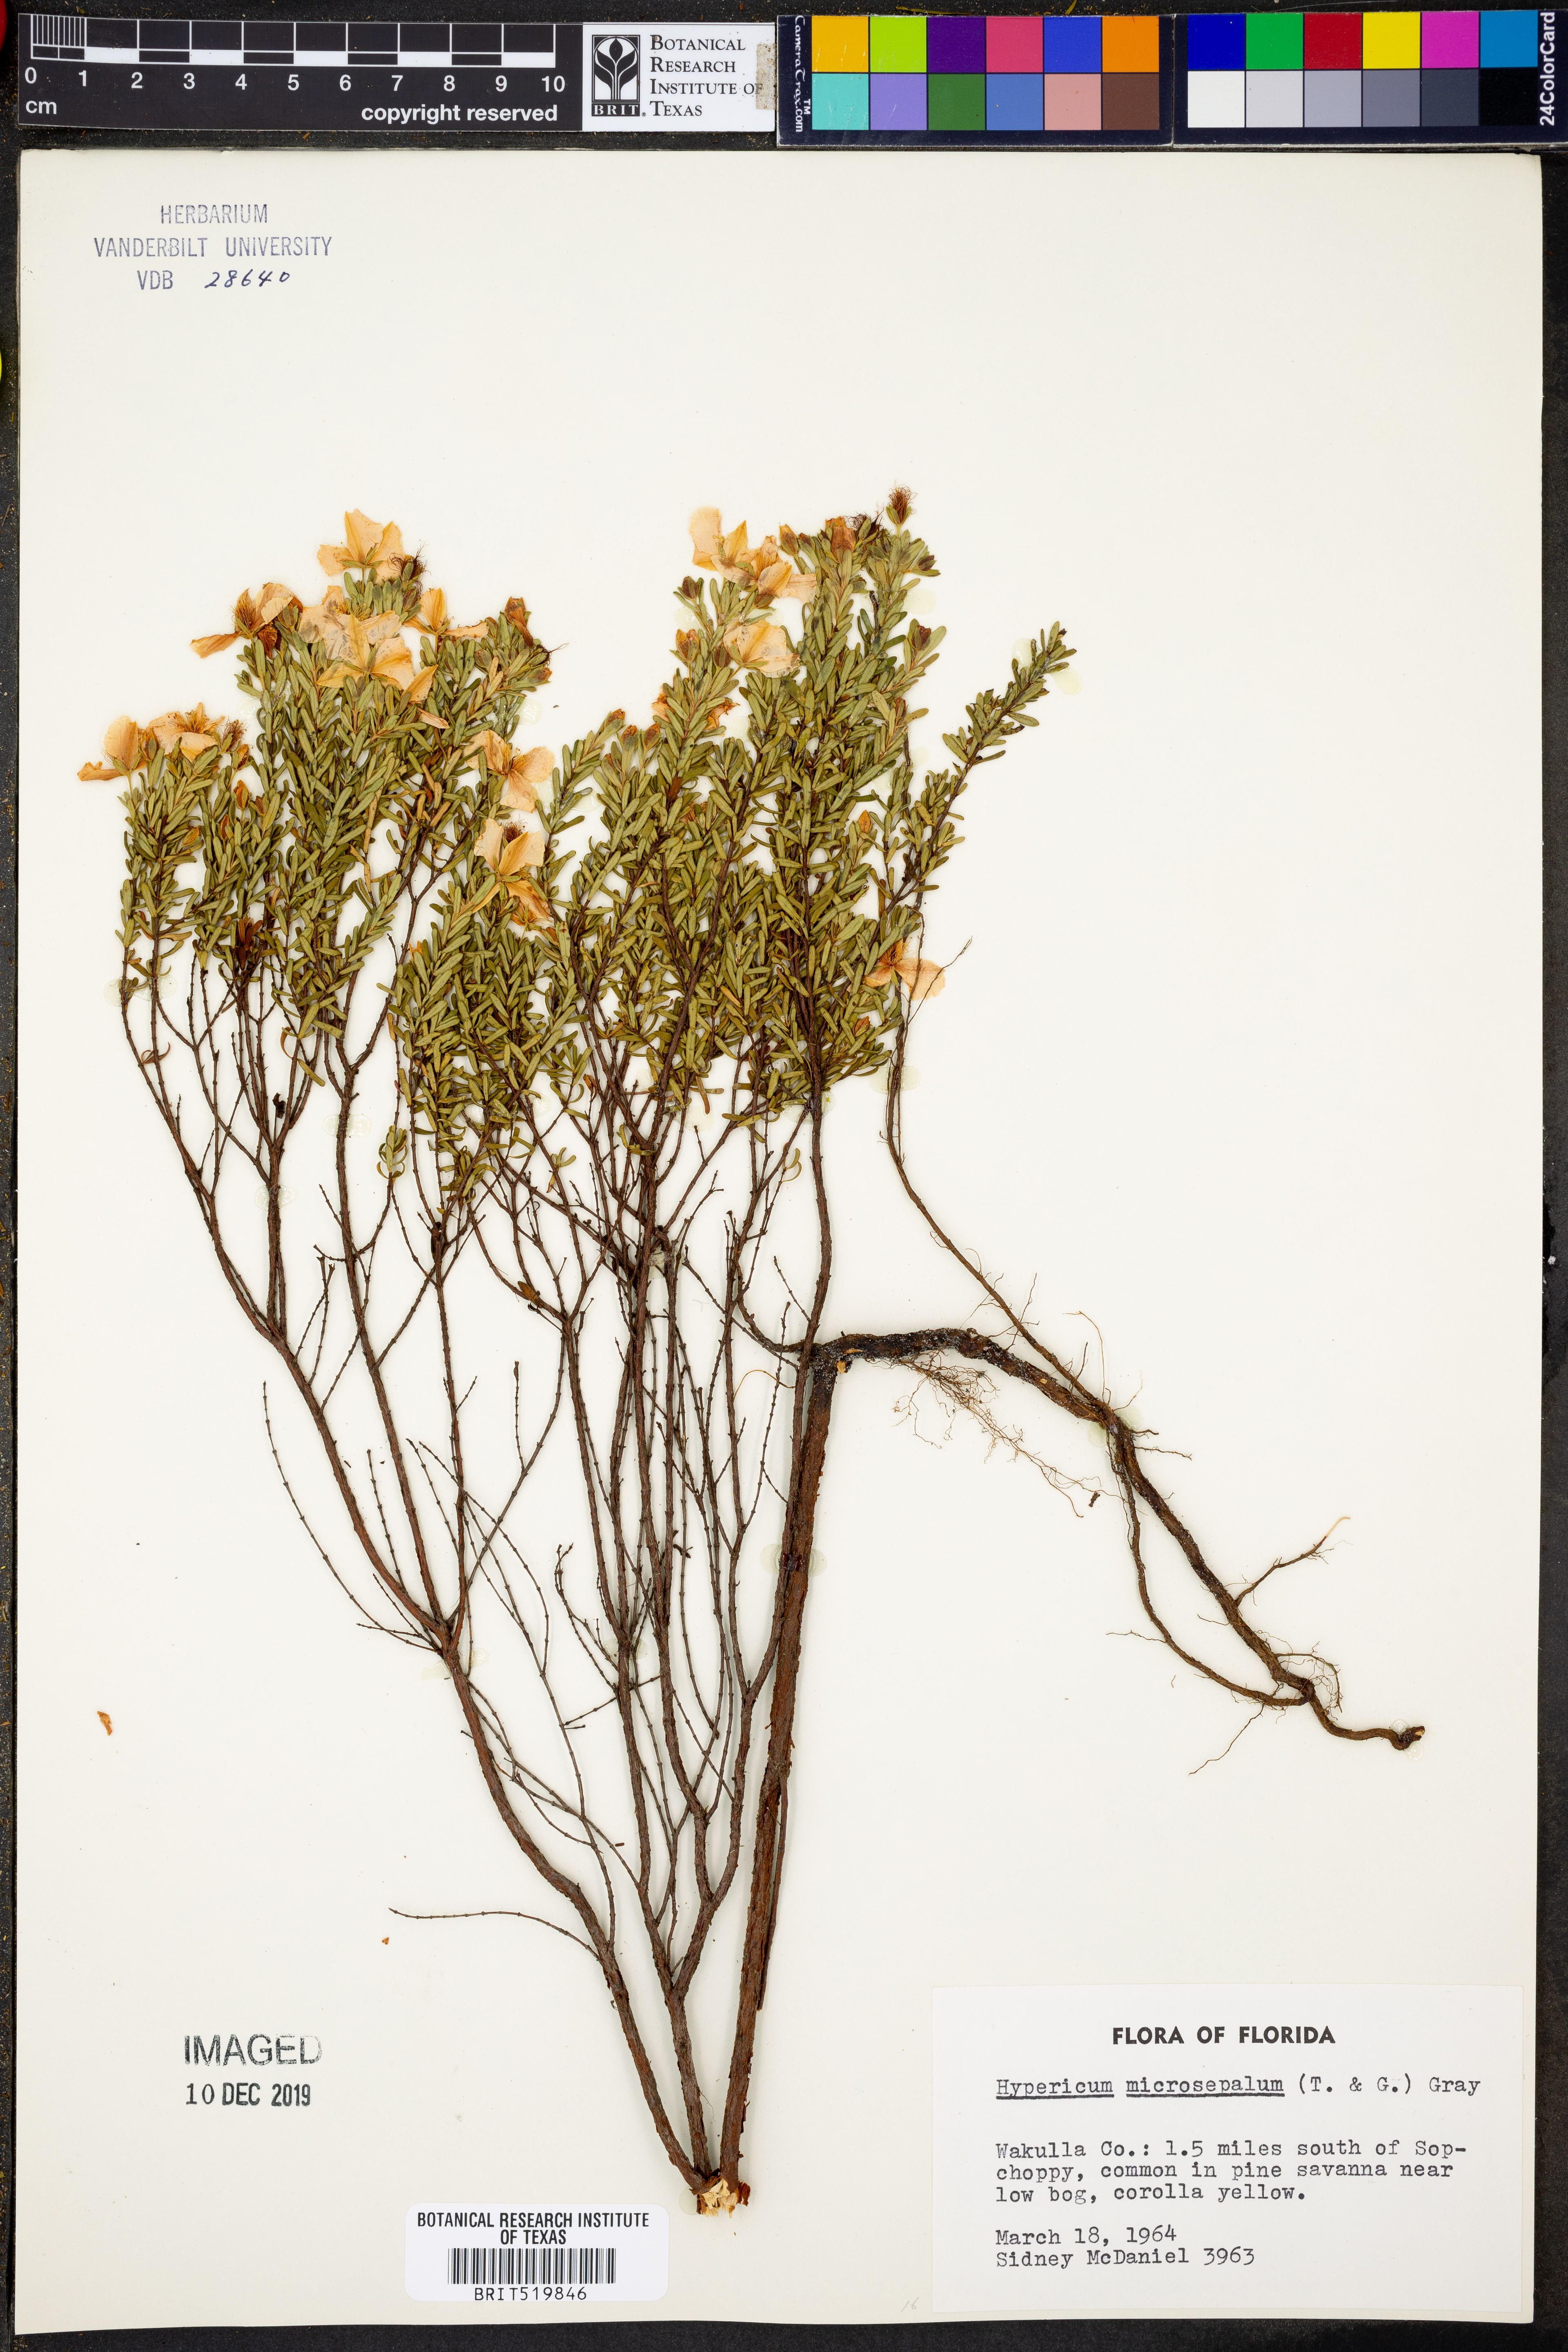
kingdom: Plantae
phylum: Tracheophyta
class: Magnoliopsida
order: Malpighiales
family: Hypericaceae
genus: Hypericum
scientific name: Hypericum microsepalum
